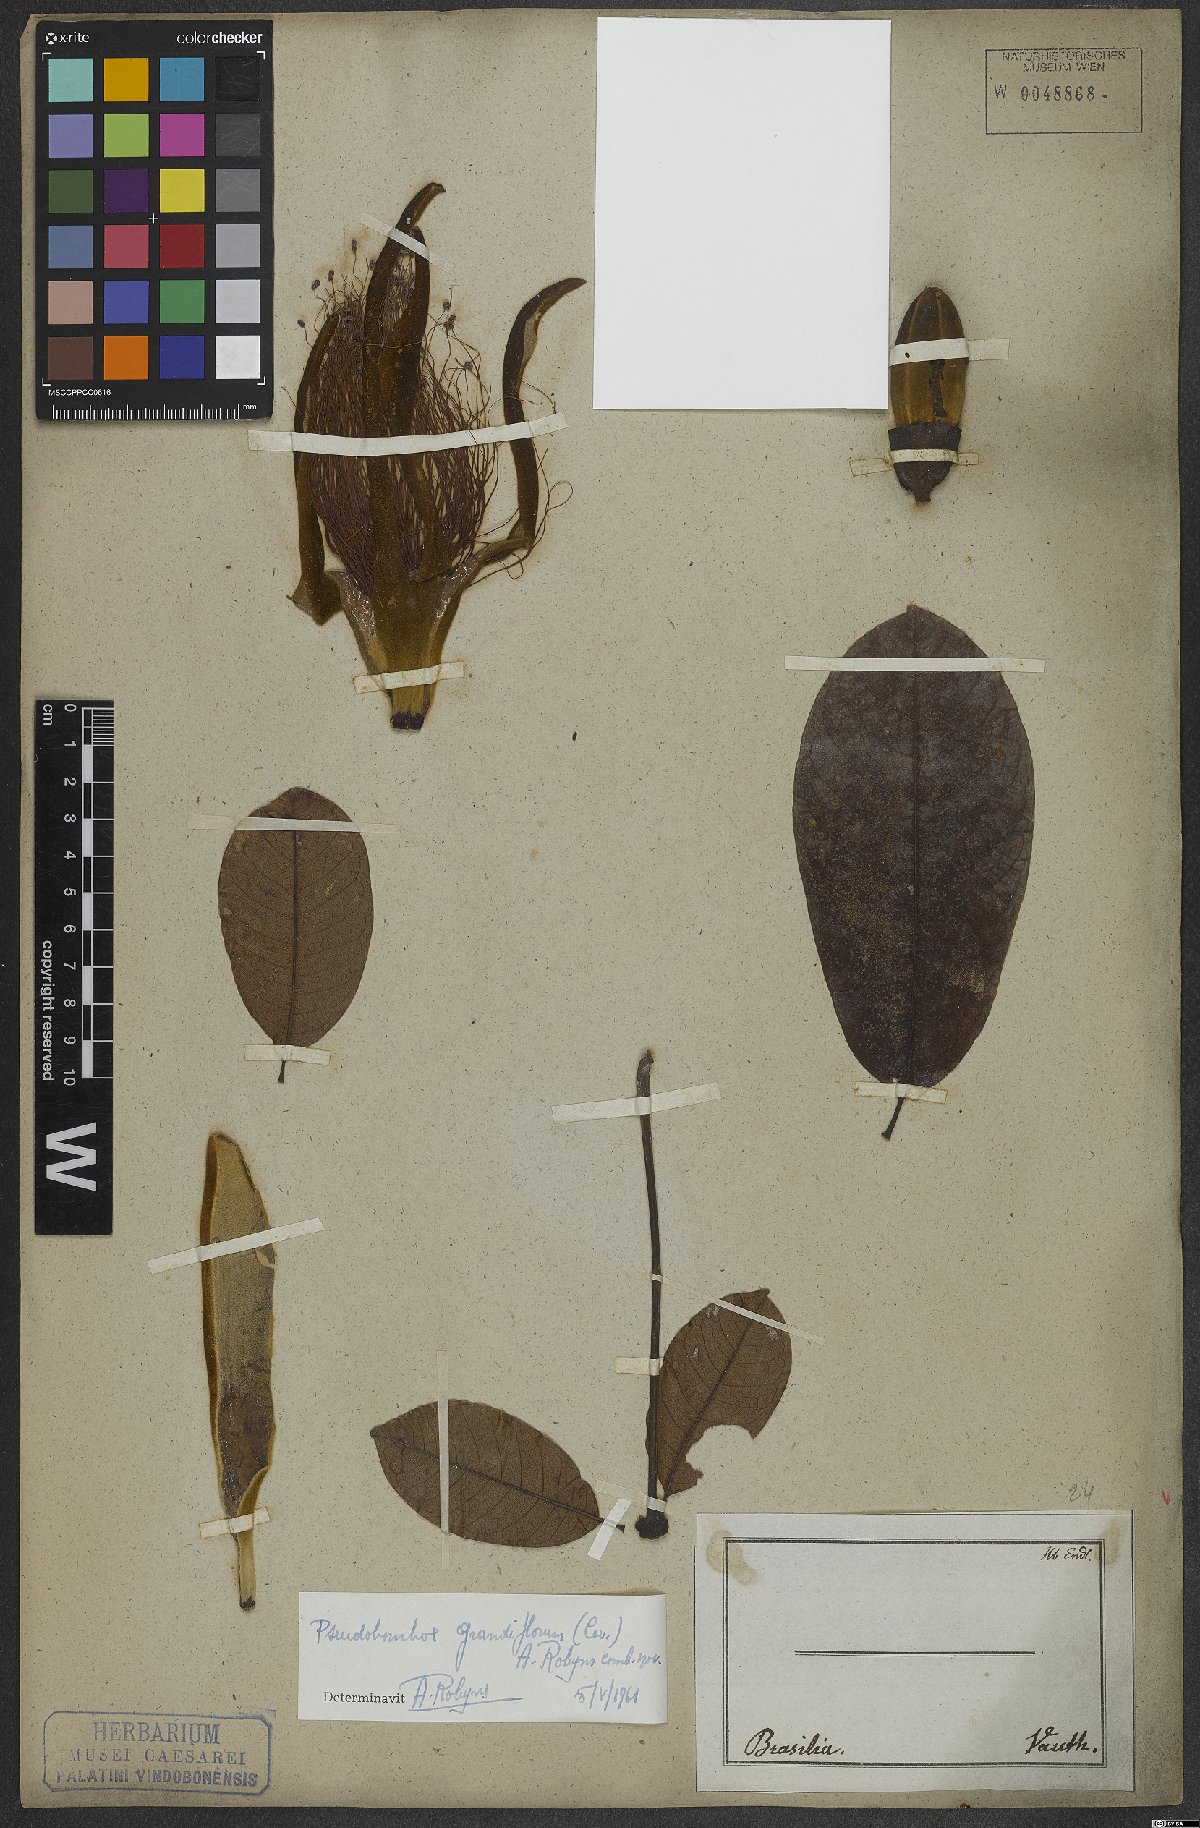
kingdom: Plantae
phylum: Tracheophyta
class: Magnoliopsida
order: Malvales
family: Malvaceae
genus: Pseudobombax
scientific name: Pseudobombax grandiflorum
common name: Brazilian shaving-brush-tree
